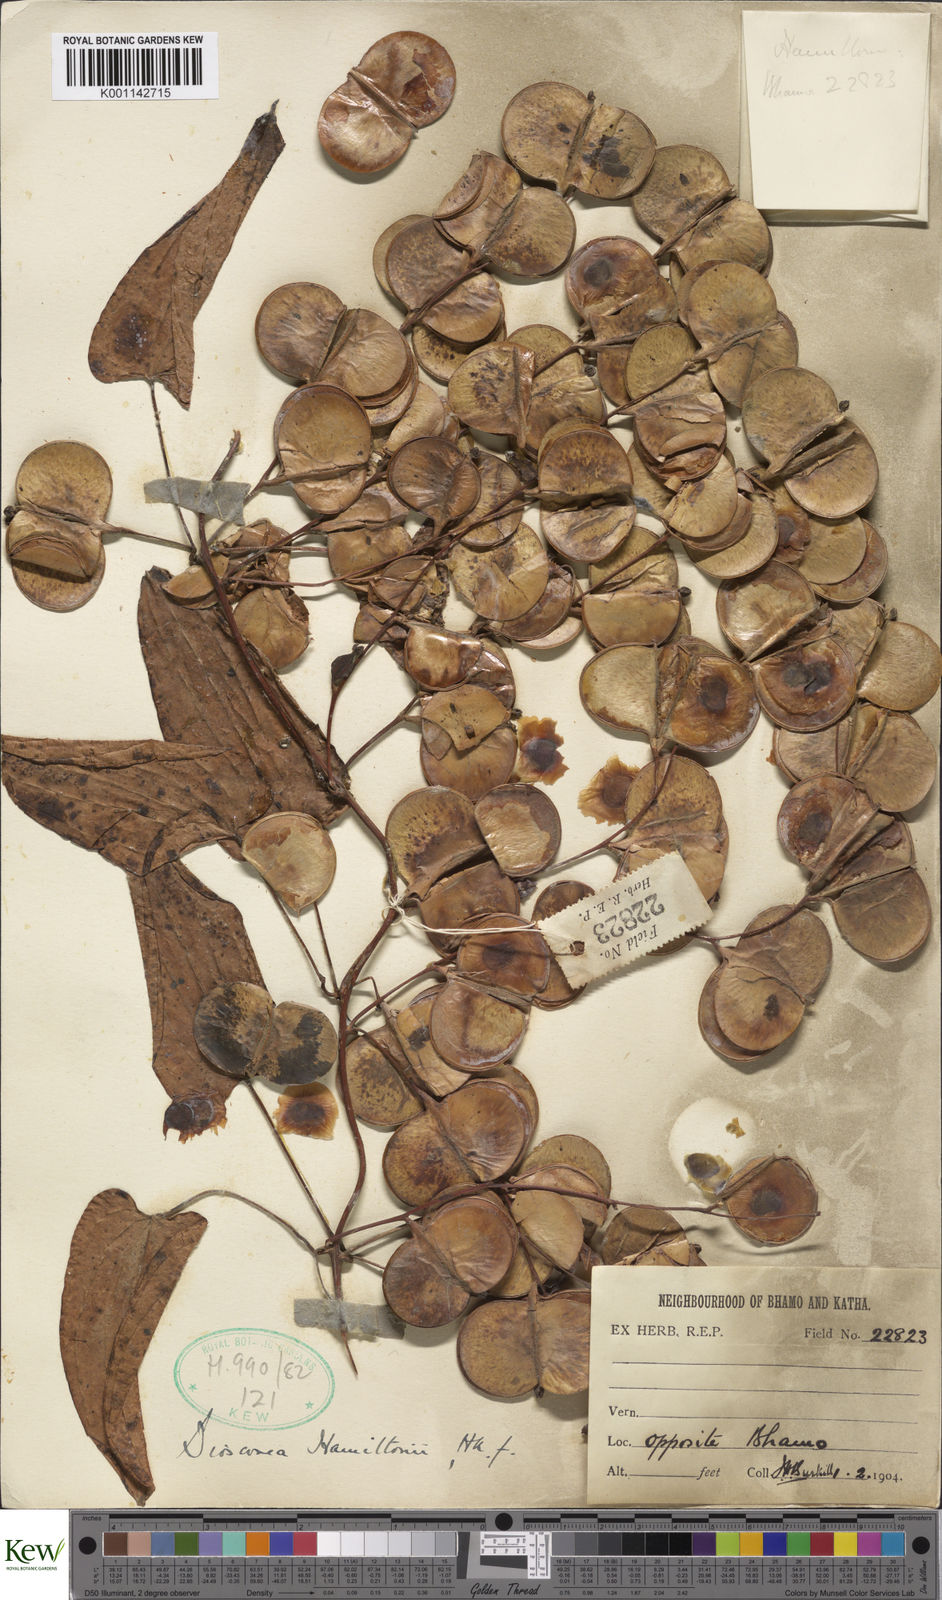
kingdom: Plantae
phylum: Tracheophyta
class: Liliopsida
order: Dioscoreales
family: Dioscoreaceae
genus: Dioscorea
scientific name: Dioscorea hamiltonii
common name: Mountain yam
